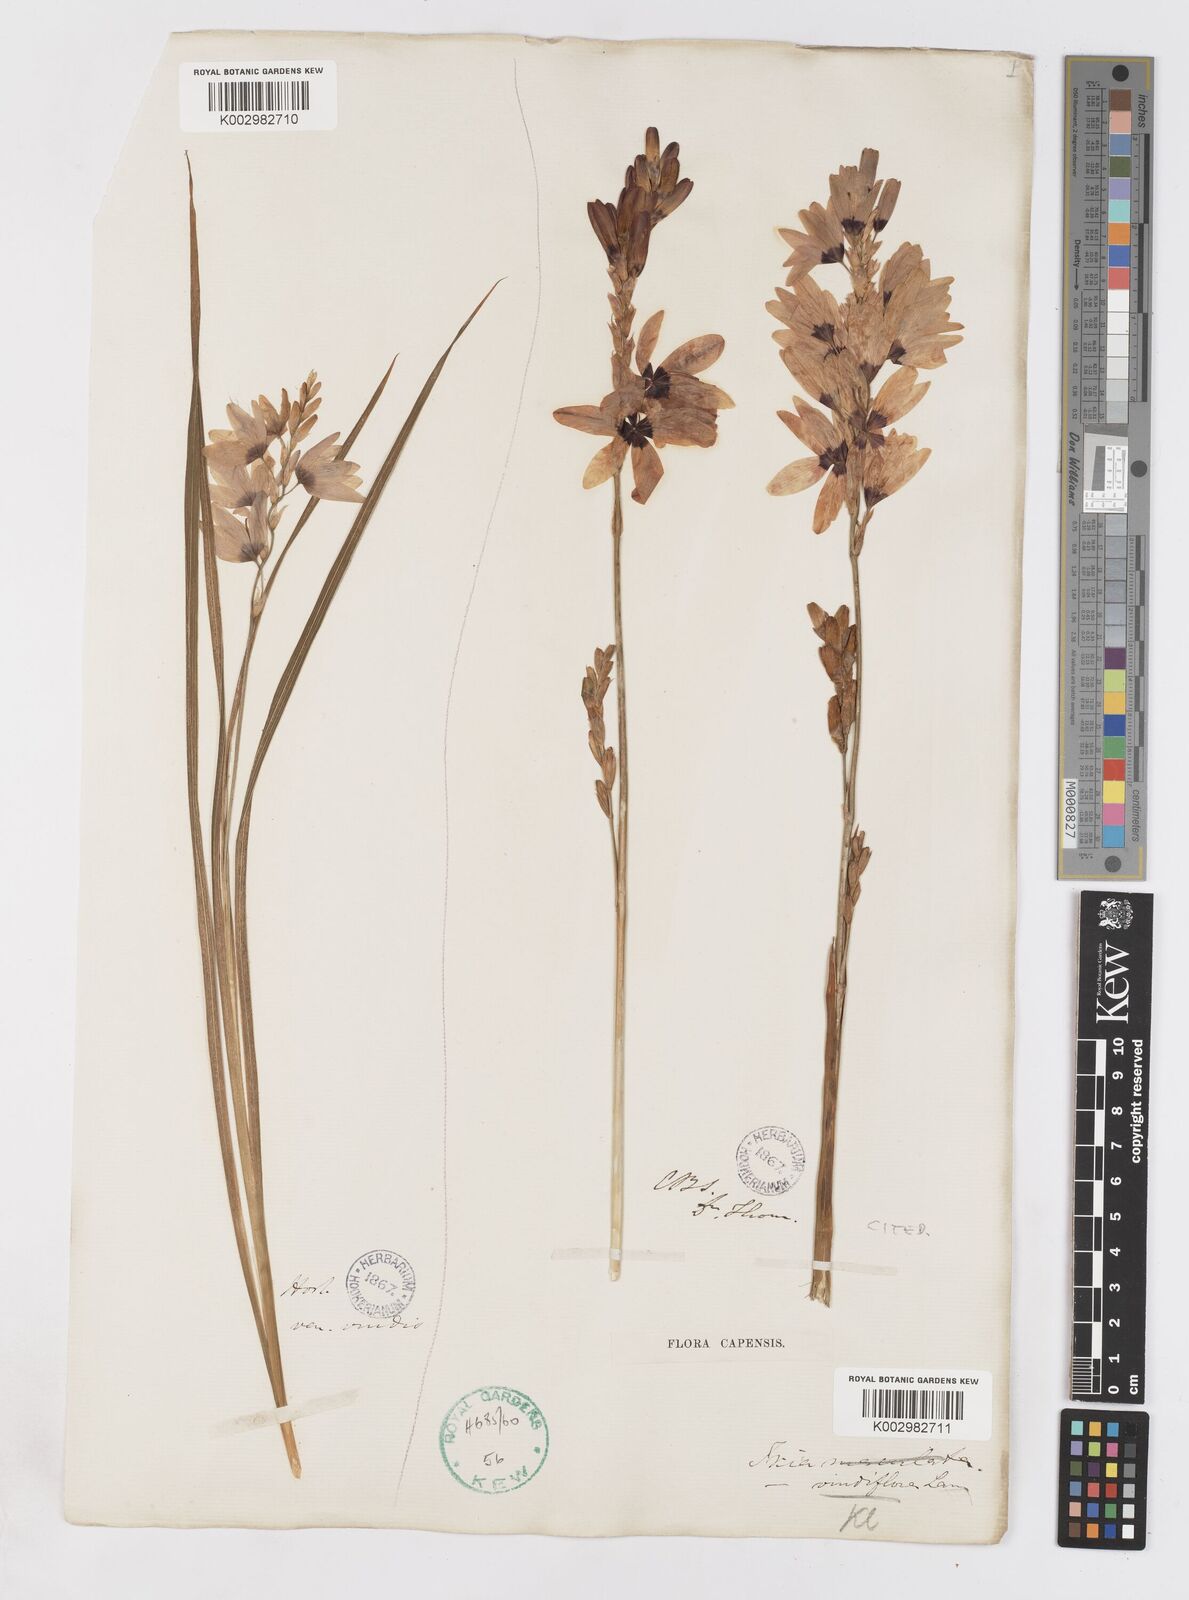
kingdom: Plantae
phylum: Tracheophyta
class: Liliopsida
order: Asparagales
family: Iridaceae
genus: Ixia
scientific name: Ixia viridiflora
